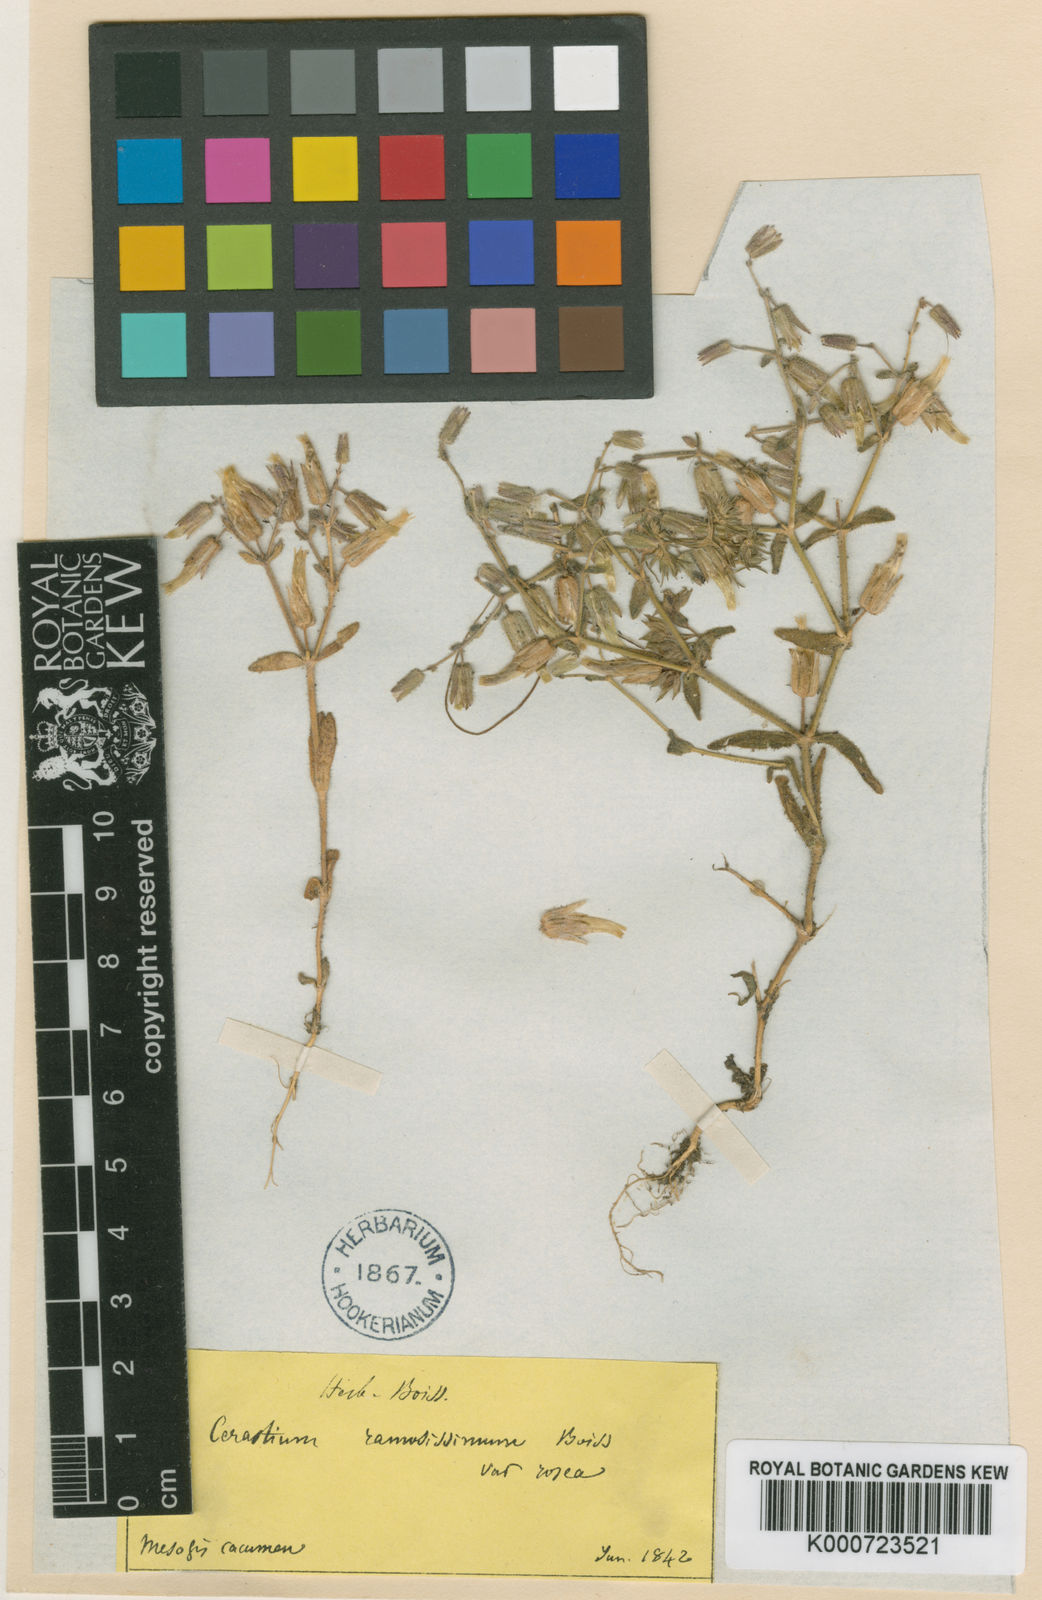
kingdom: Plantae
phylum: Tracheophyta
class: Magnoliopsida
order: Caryophyllales
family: Caryophyllaceae
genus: Cerastium
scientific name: Cerastium gracile
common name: Slender chickweed
